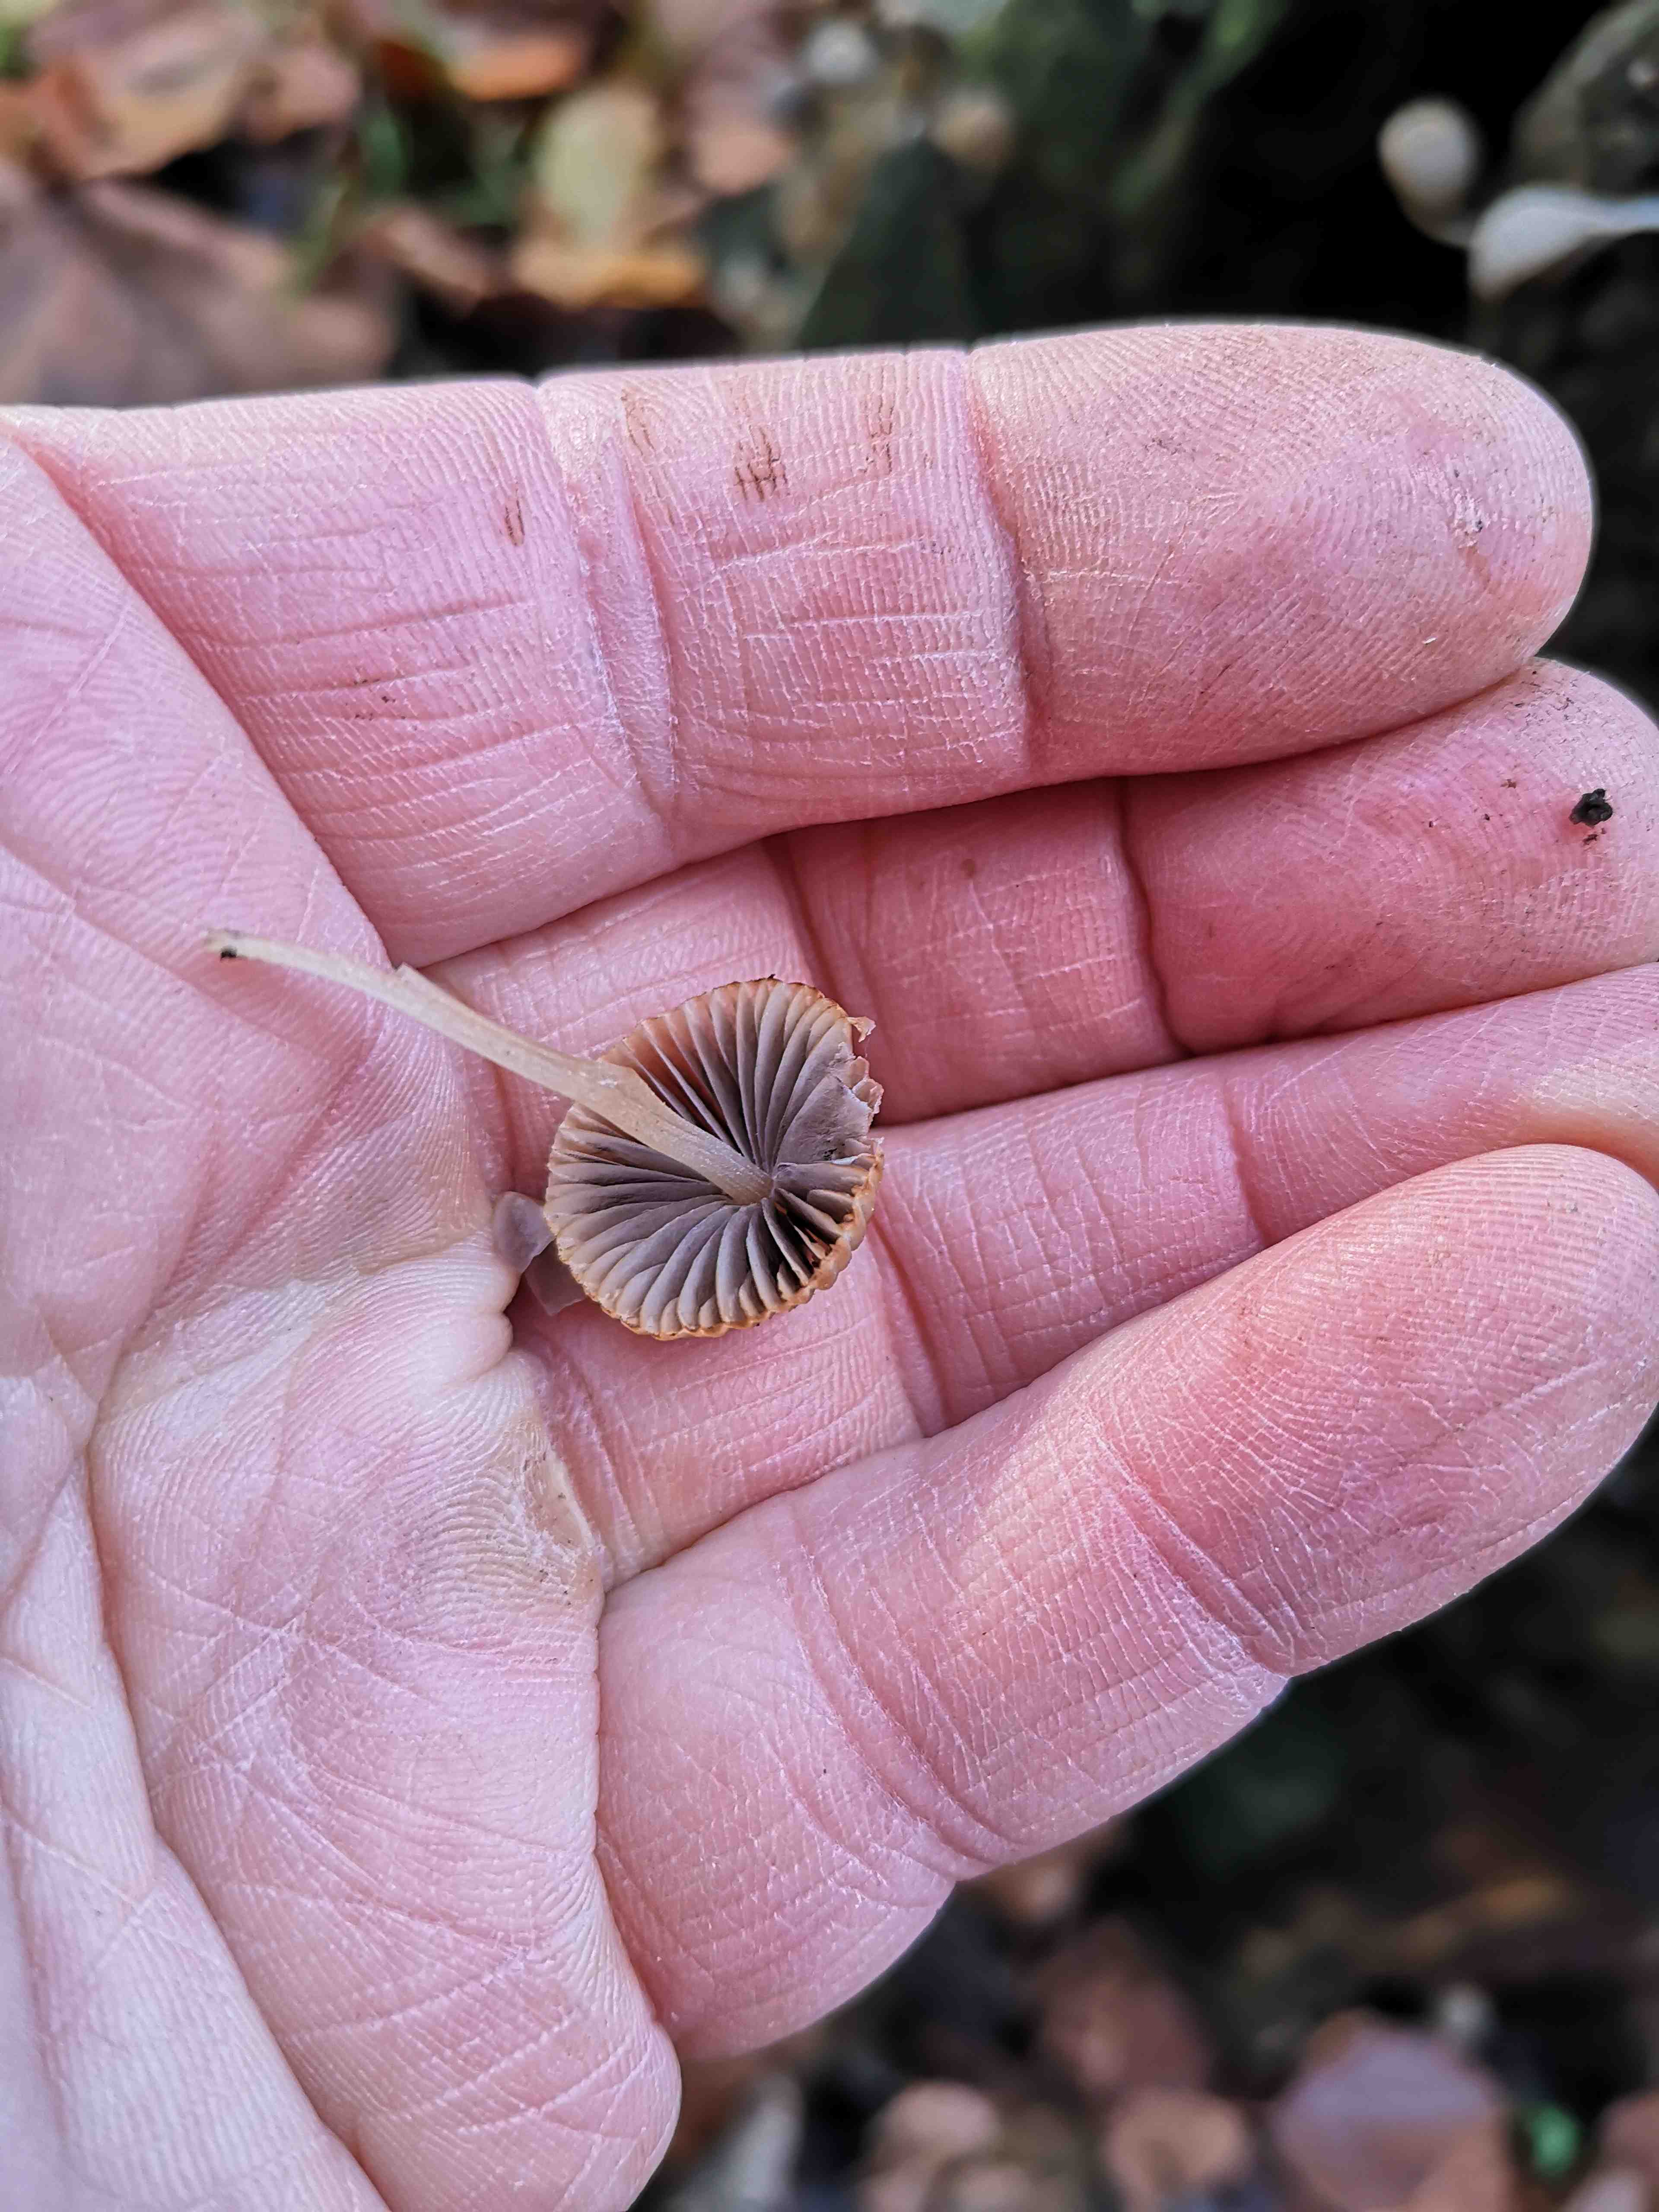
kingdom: Fungi
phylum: Basidiomycota
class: Agaricomycetes
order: Agaricales
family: Psathyrellaceae
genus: Coprinellus
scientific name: Coprinellus disseminatus
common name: bredsået blækhat
